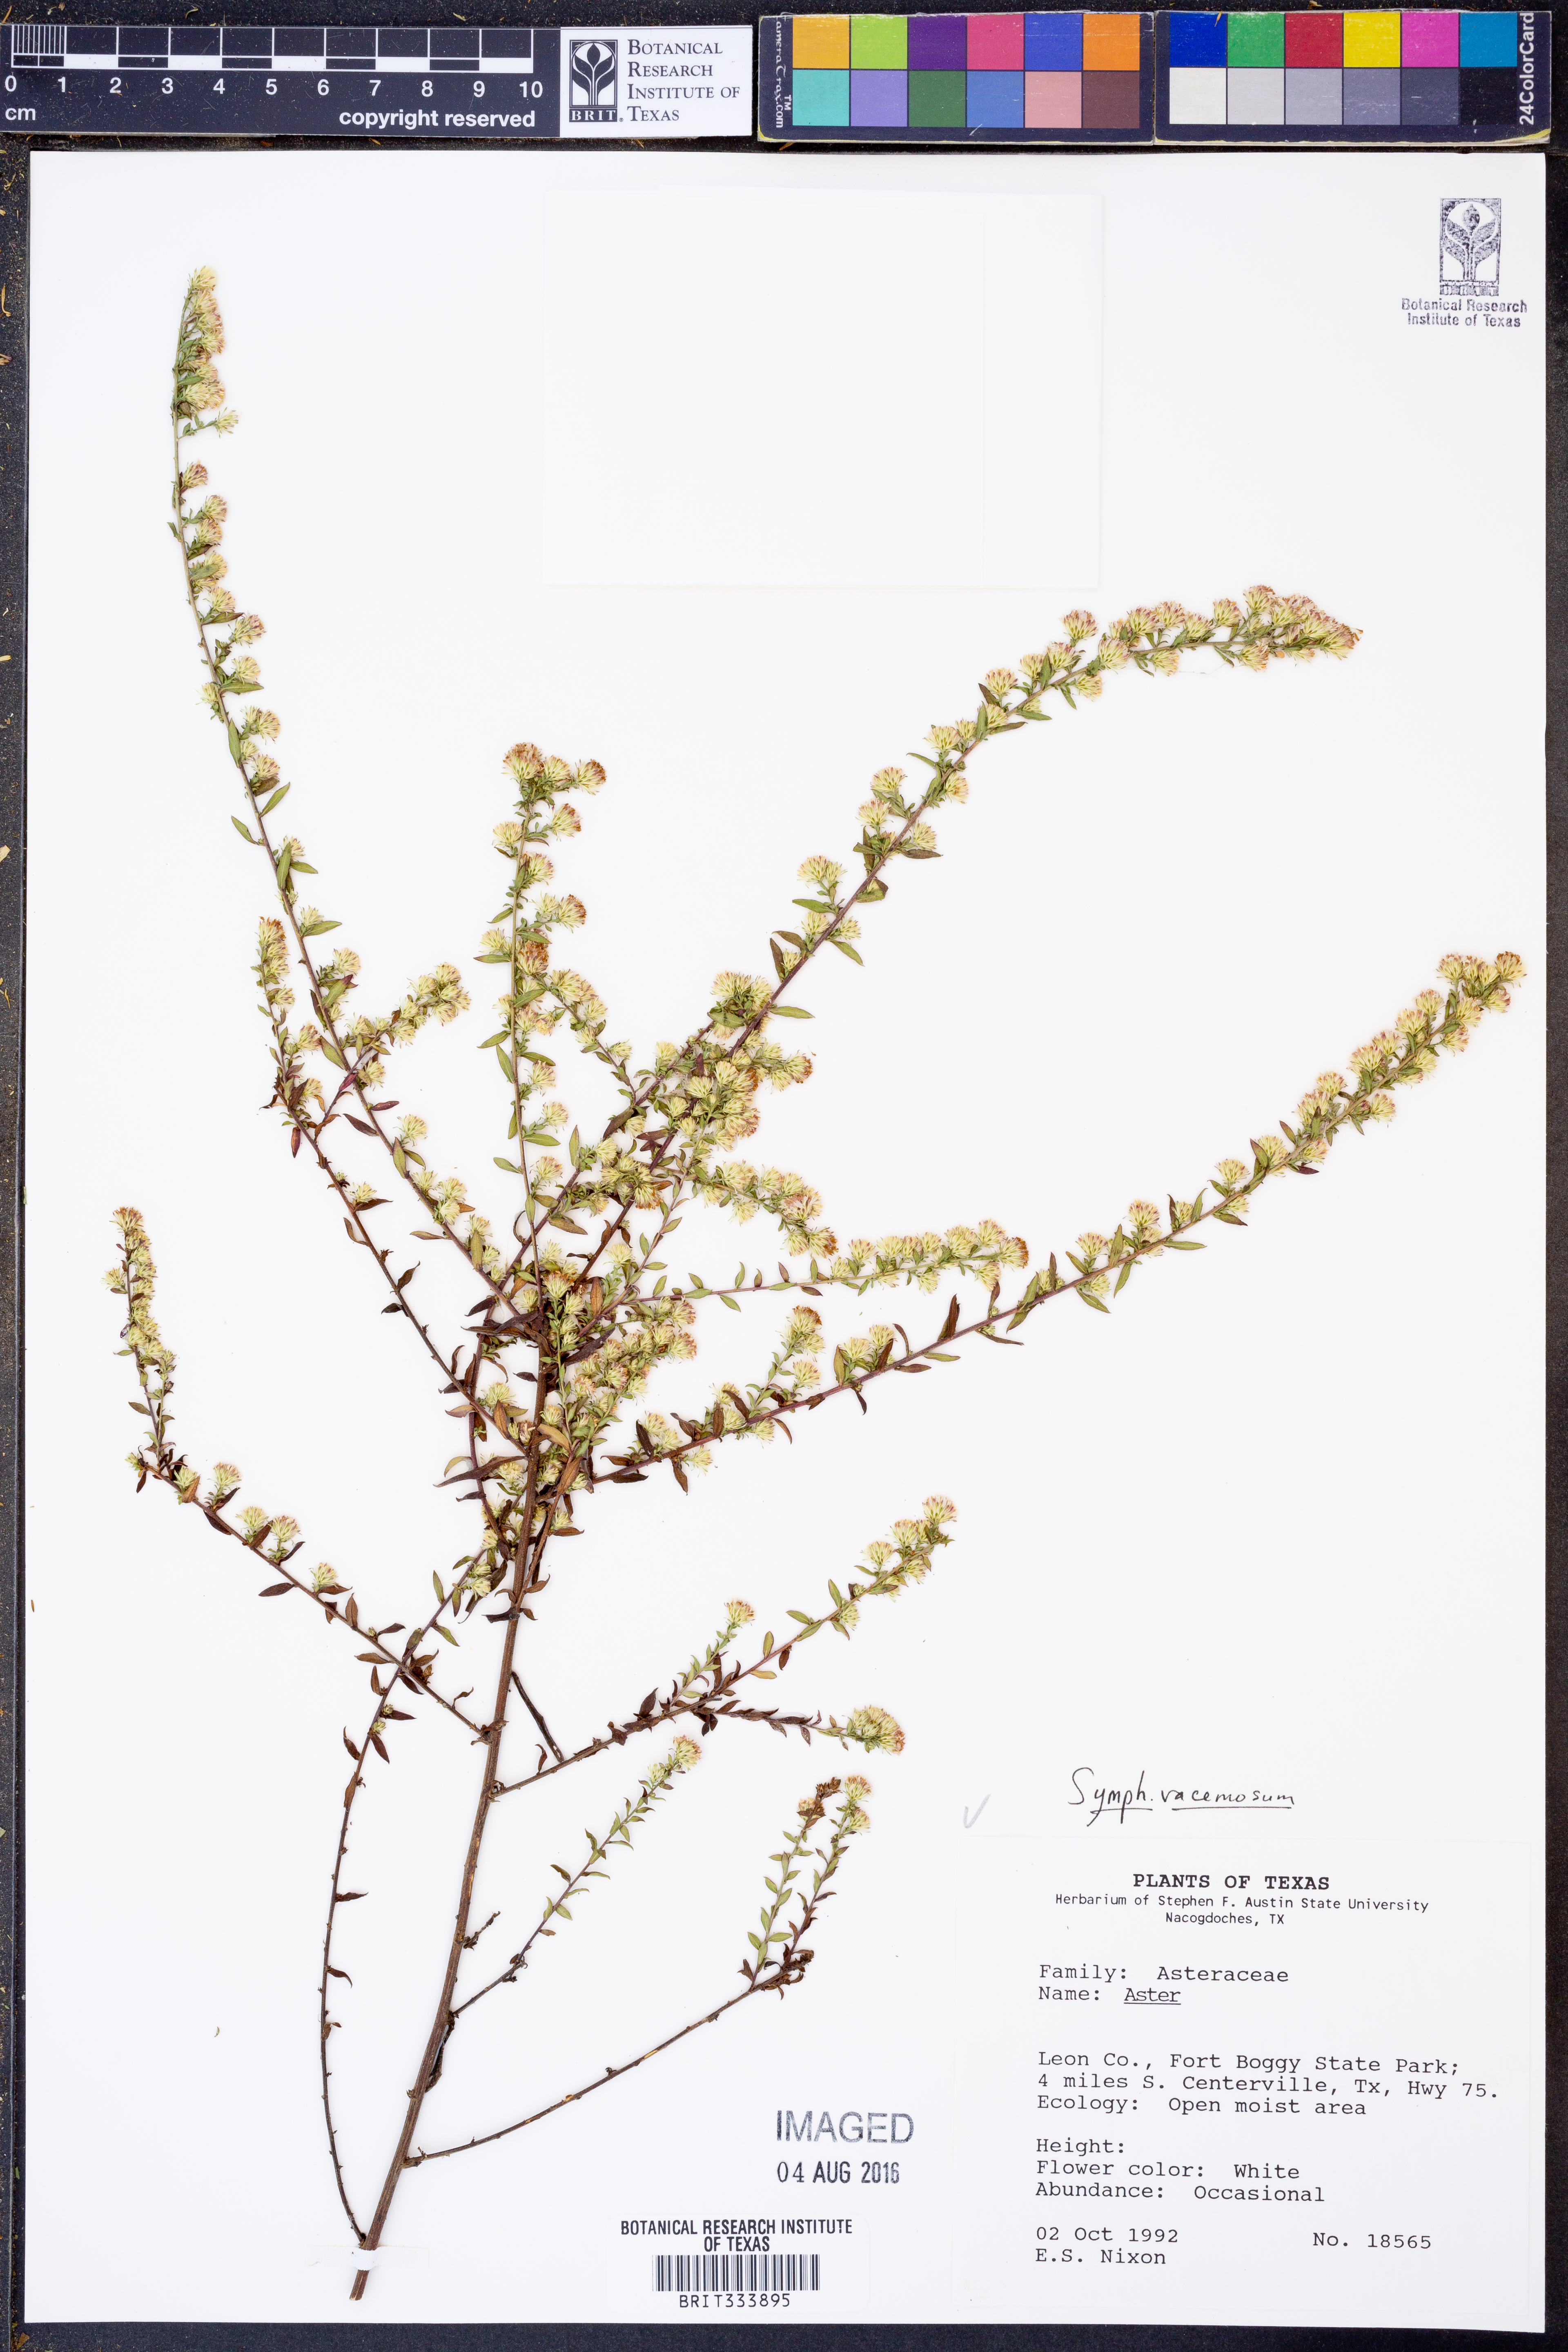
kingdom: Plantae
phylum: Tracheophyta
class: Magnoliopsida
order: Dipsacales
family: Caprifoliaceae
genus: Symphoricarpos
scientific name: Symphoricarpos albus
